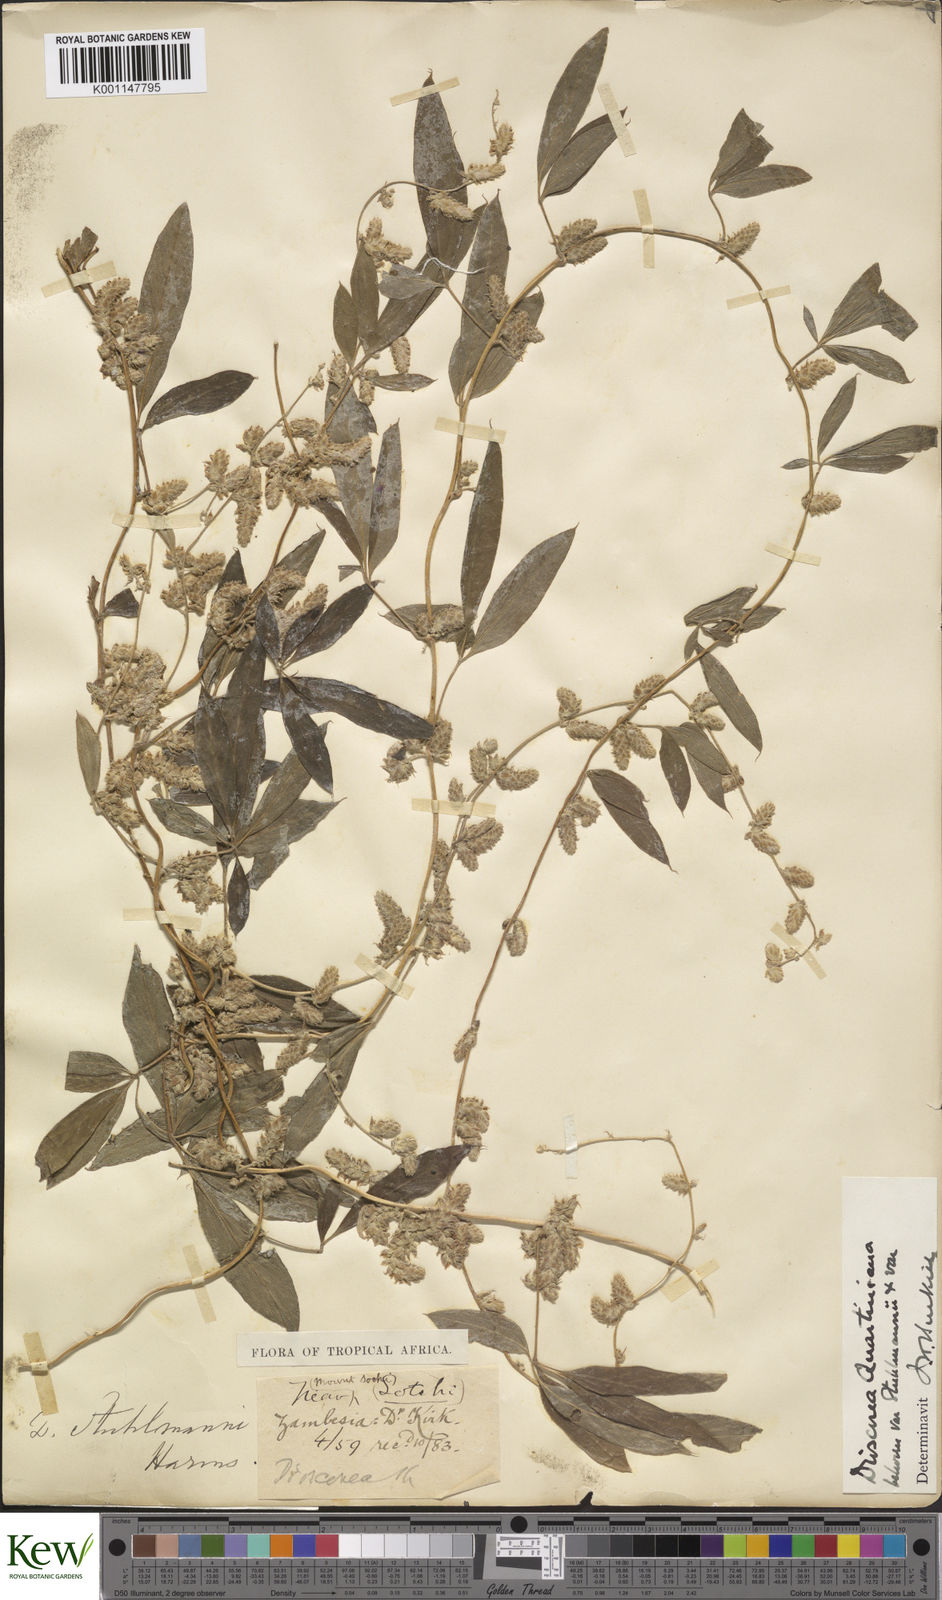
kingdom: Plantae
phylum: Tracheophyta
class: Liliopsida
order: Dioscoreales
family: Dioscoreaceae
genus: Dioscorea
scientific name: Dioscorea quartiniana
